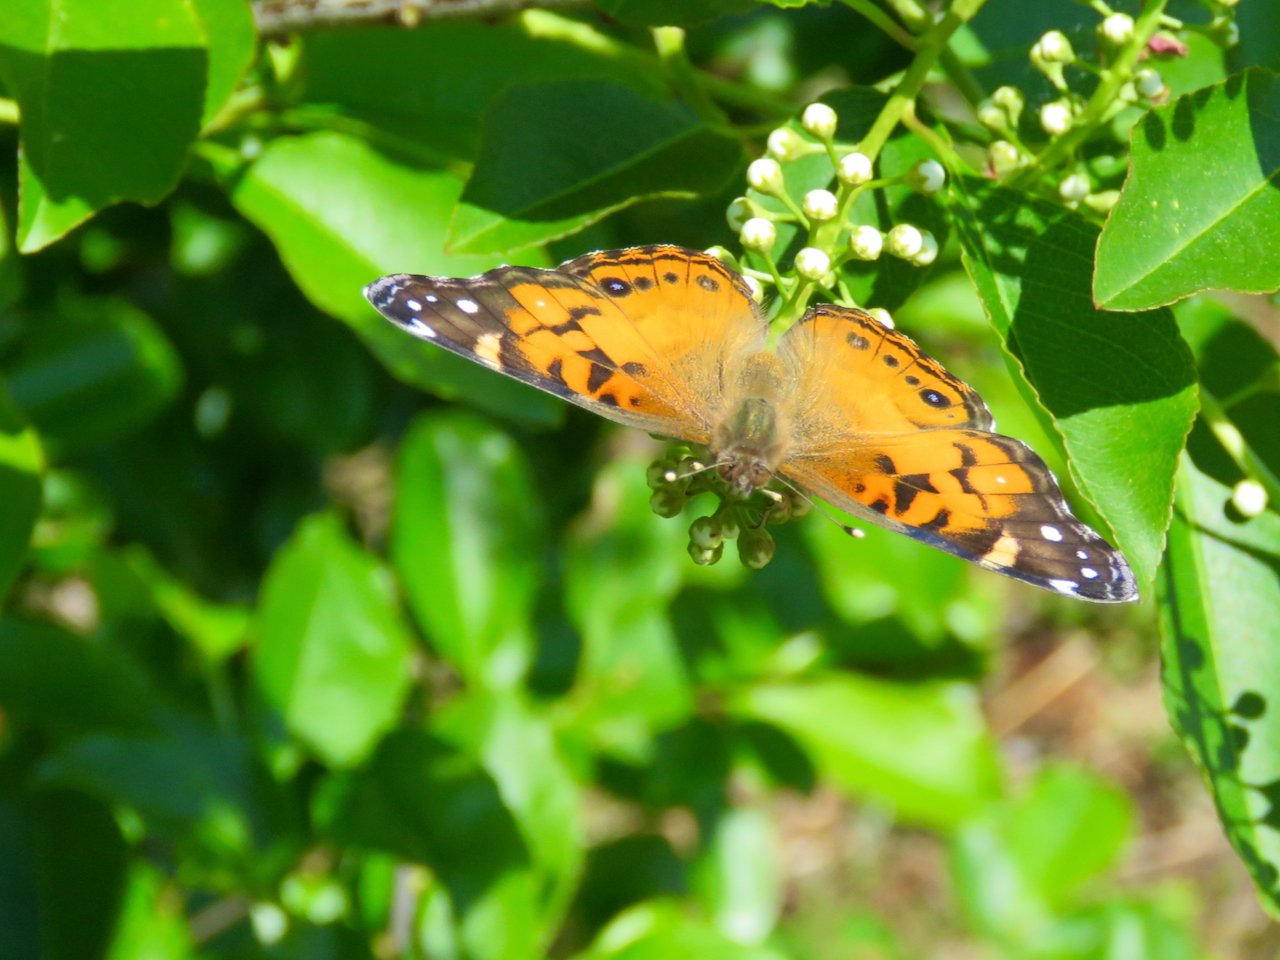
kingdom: Animalia
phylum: Arthropoda
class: Insecta
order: Lepidoptera
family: Nymphalidae
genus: Vanessa
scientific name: Vanessa virginiensis
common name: American Lady
